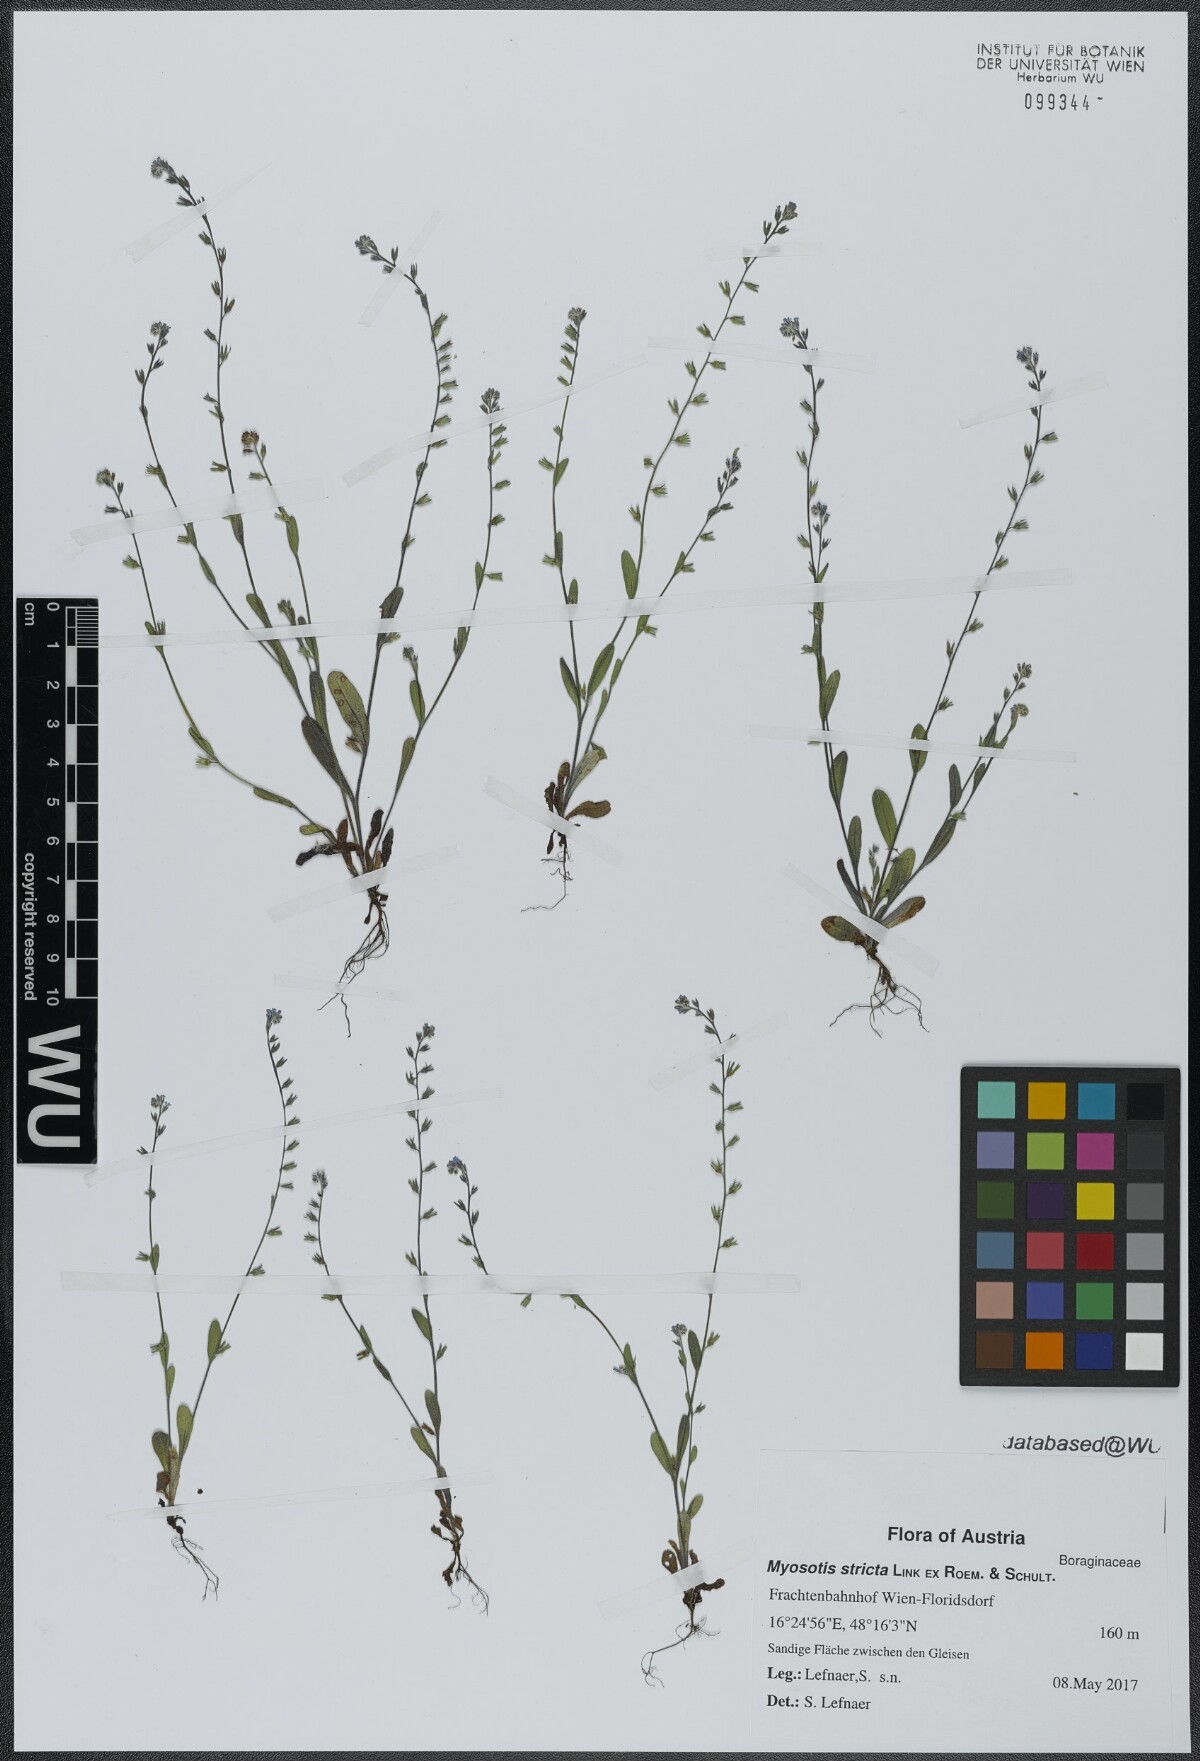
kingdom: Plantae
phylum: Tracheophyta
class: Magnoliopsida
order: Boraginales
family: Boraginaceae
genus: Myosotis
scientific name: Myosotis stricta
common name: Strict forget-me-not
